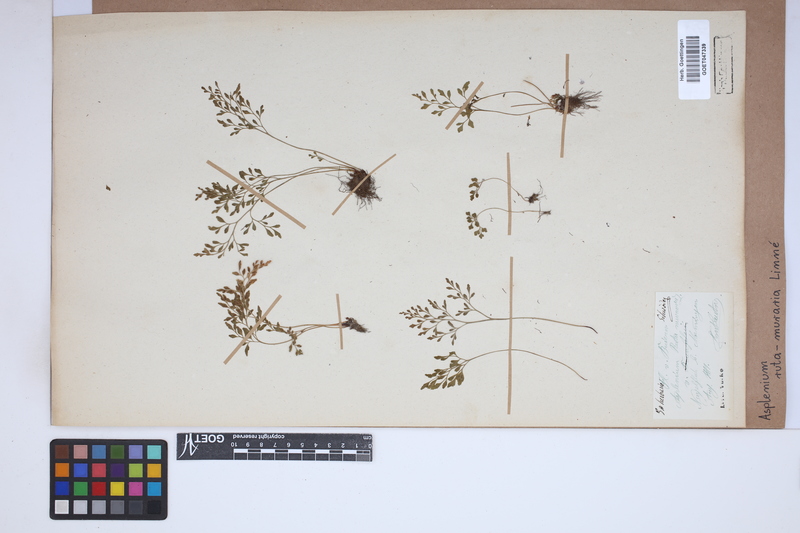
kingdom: Plantae
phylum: Tracheophyta
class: Polypodiopsida
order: Polypodiales
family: Aspleniaceae
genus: Asplenium
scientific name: Asplenium ruta-muraria
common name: Wall-rue
